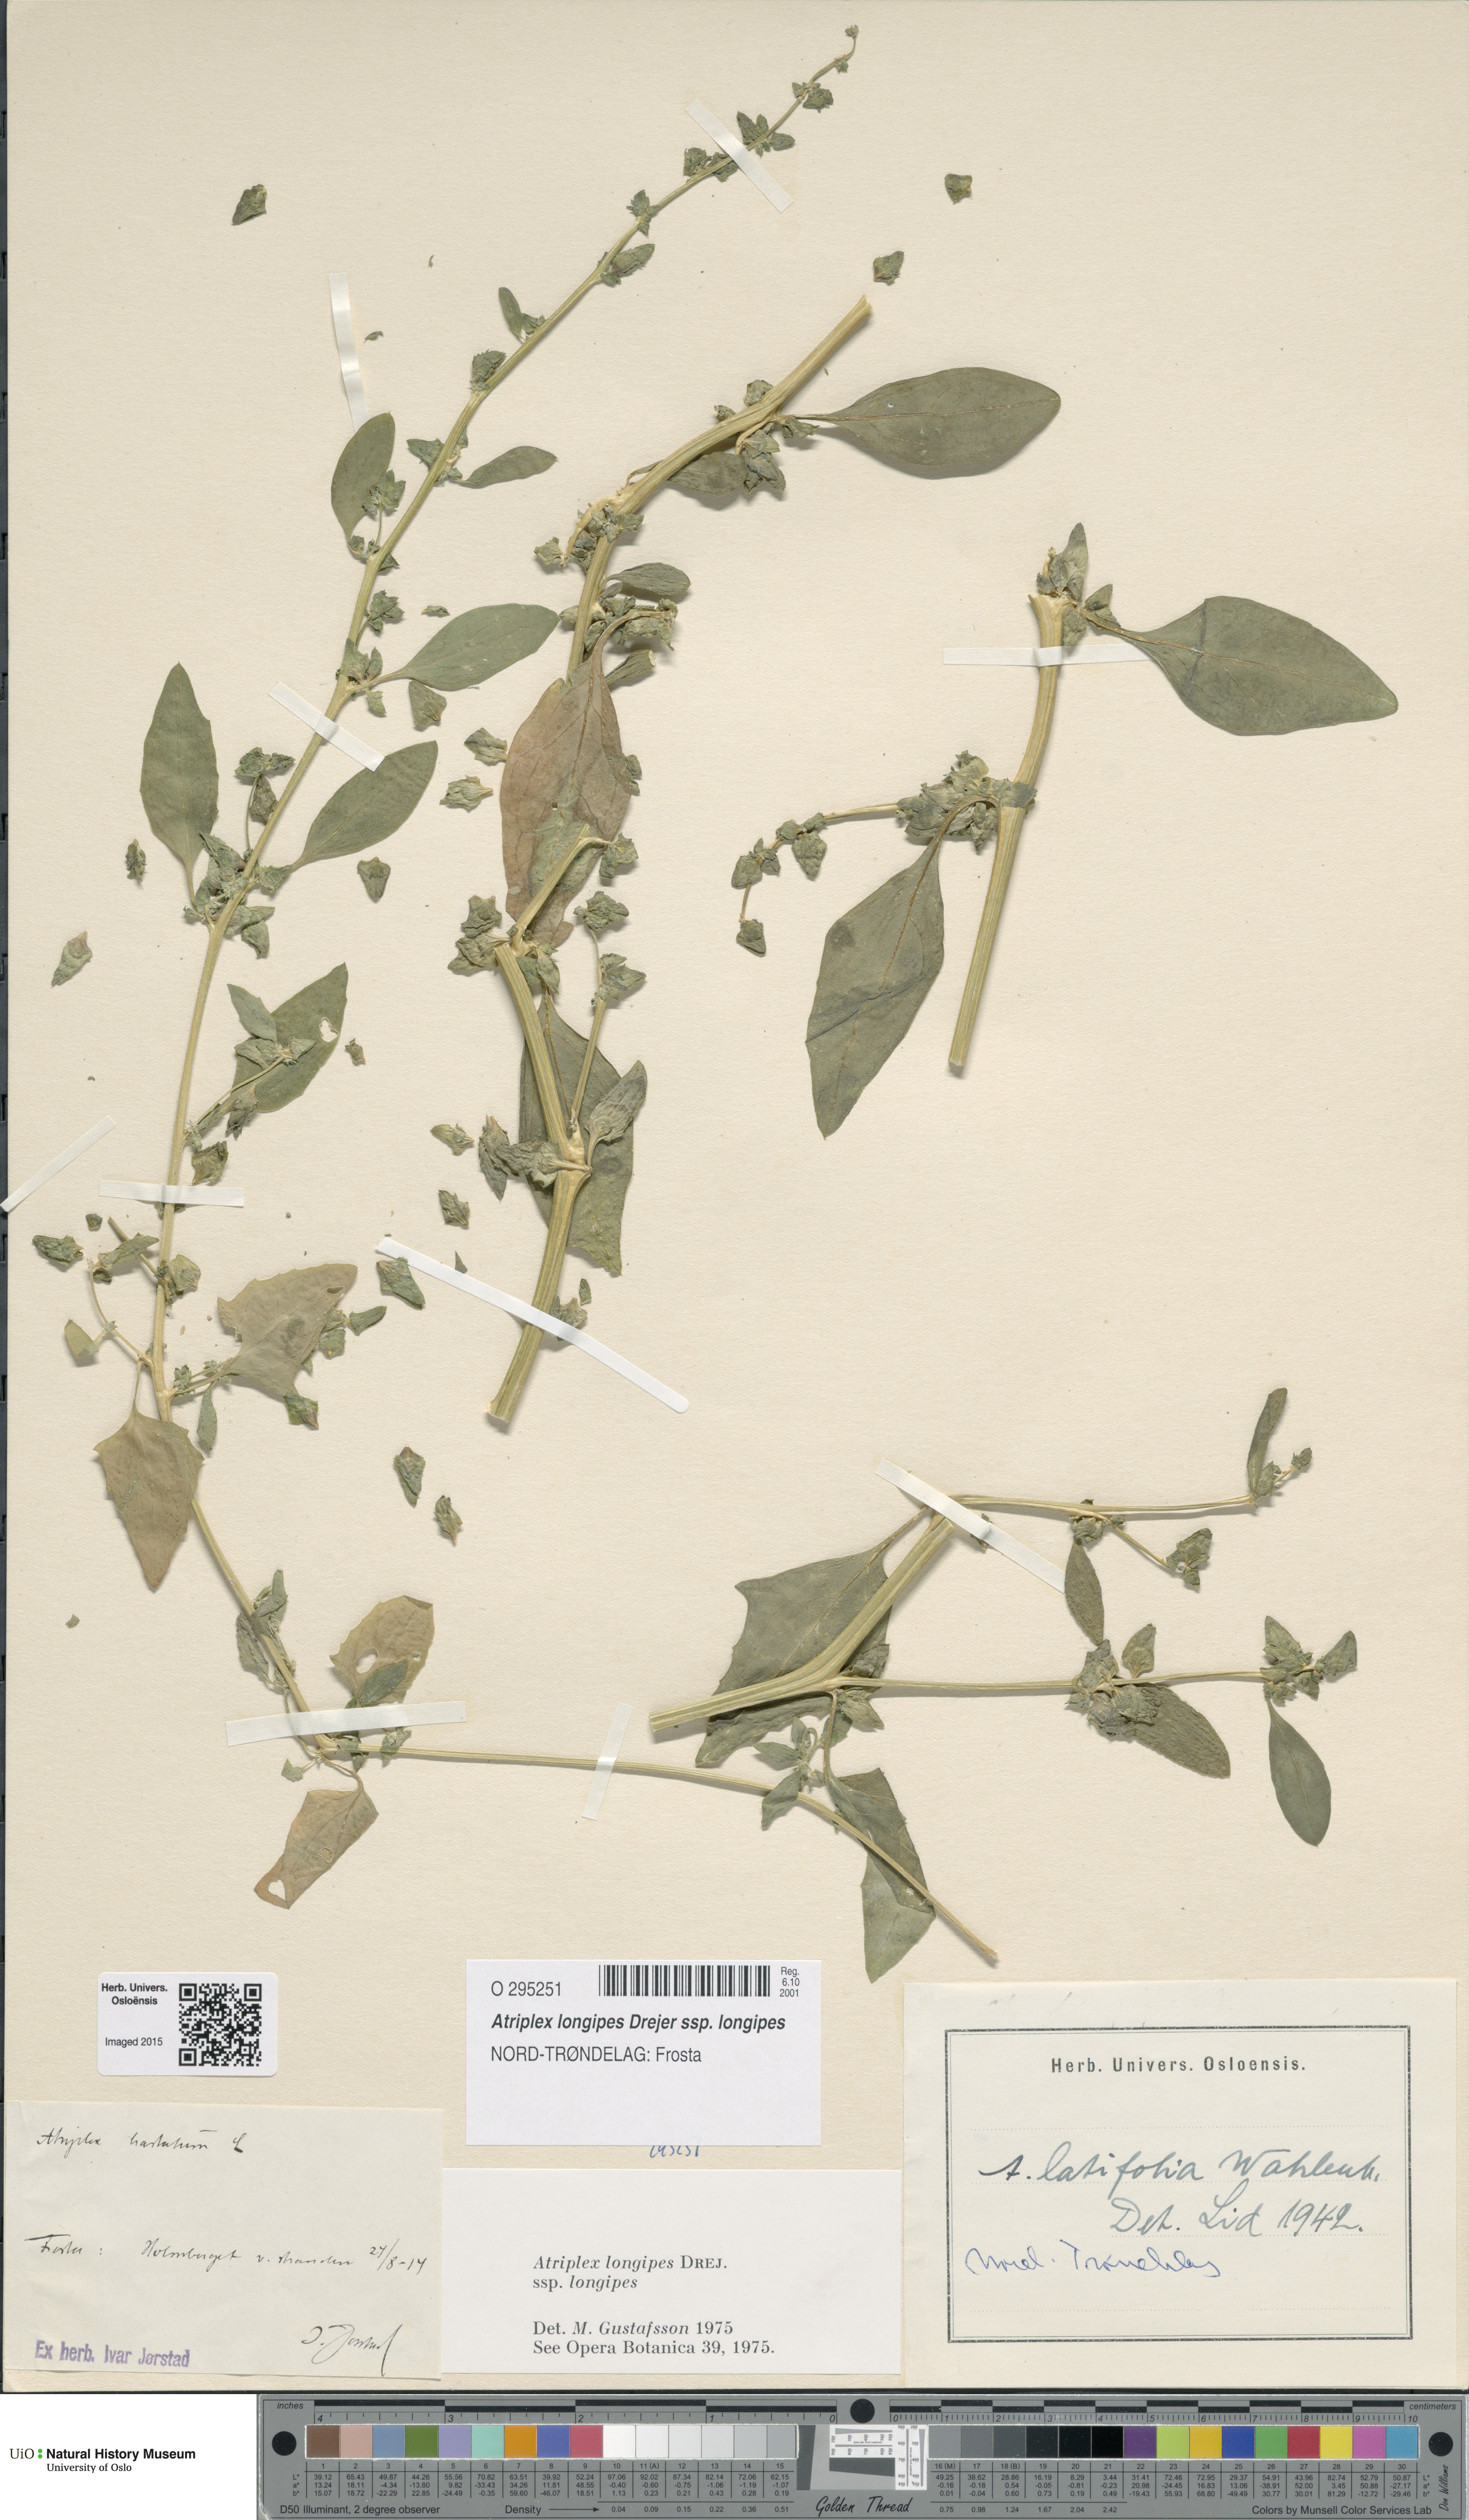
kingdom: Plantae
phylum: Tracheophyta
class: Magnoliopsida
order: Caryophyllales
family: Amaranthaceae
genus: Atriplex
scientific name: Atriplex longipes
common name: Long-stalked orache
